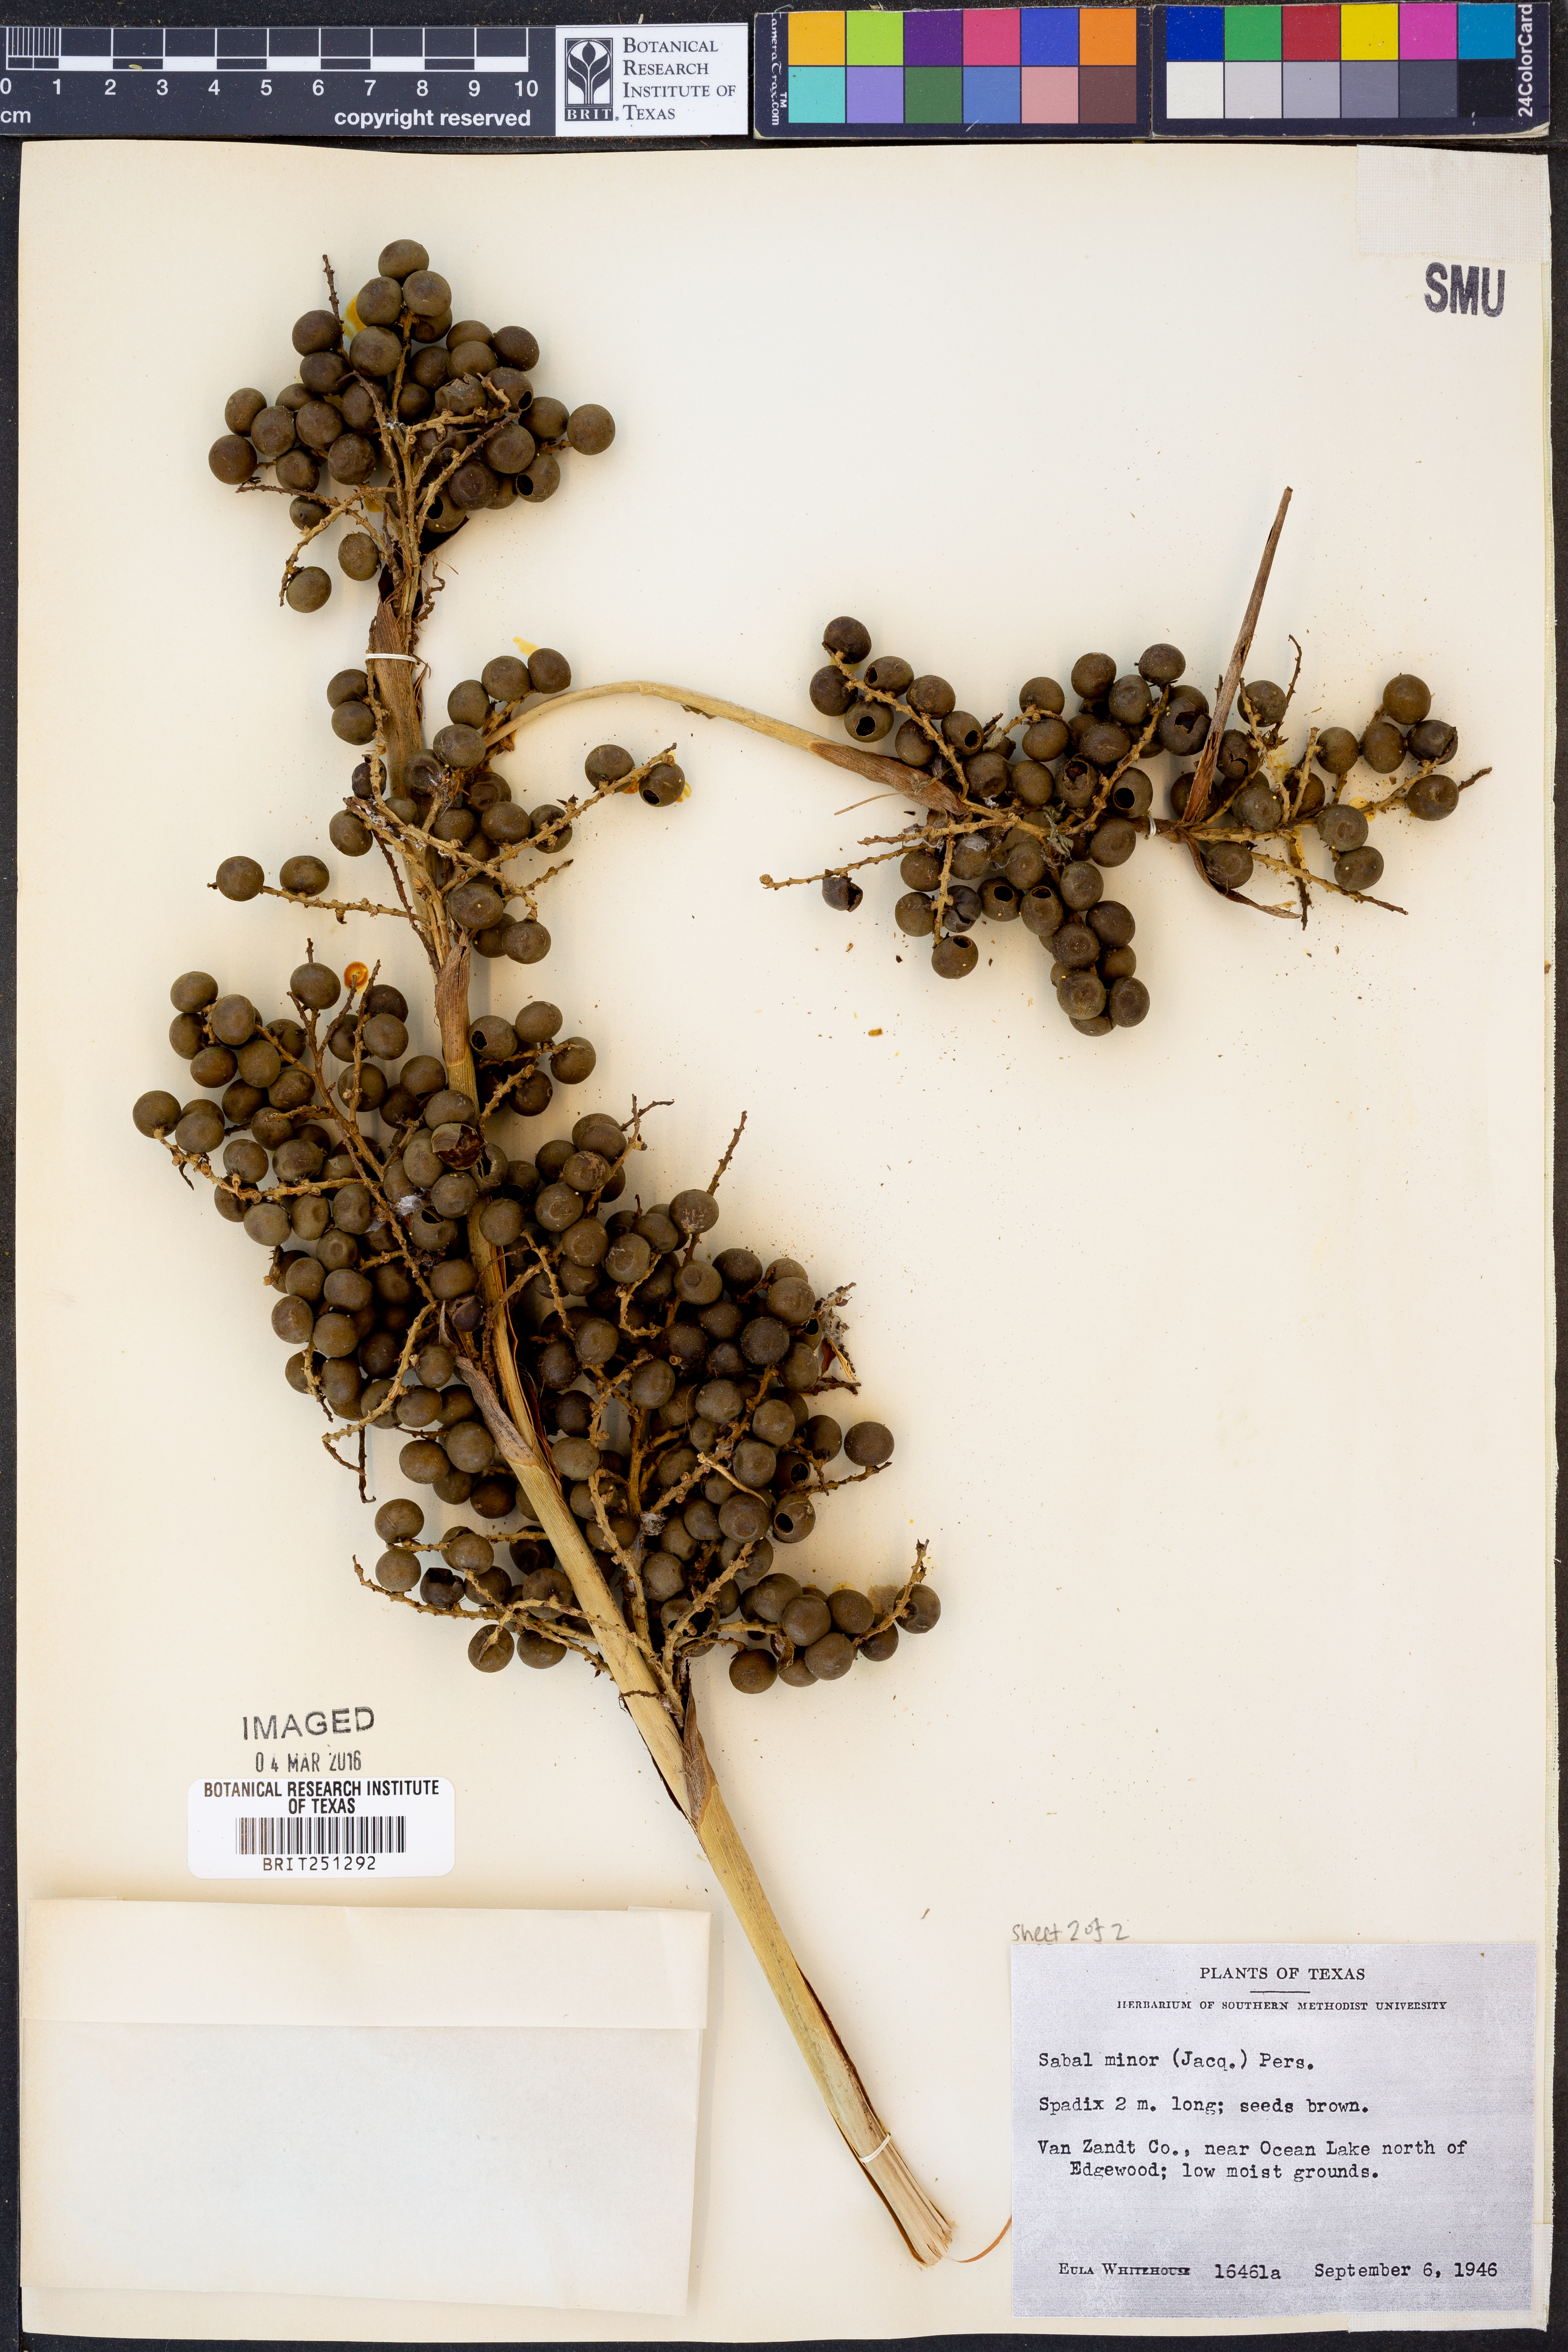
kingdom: Plantae
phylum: Tracheophyta
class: Liliopsida
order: Arecales
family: Arecaceae
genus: Sabal
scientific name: Sabal minor
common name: Dwarf palmetto
